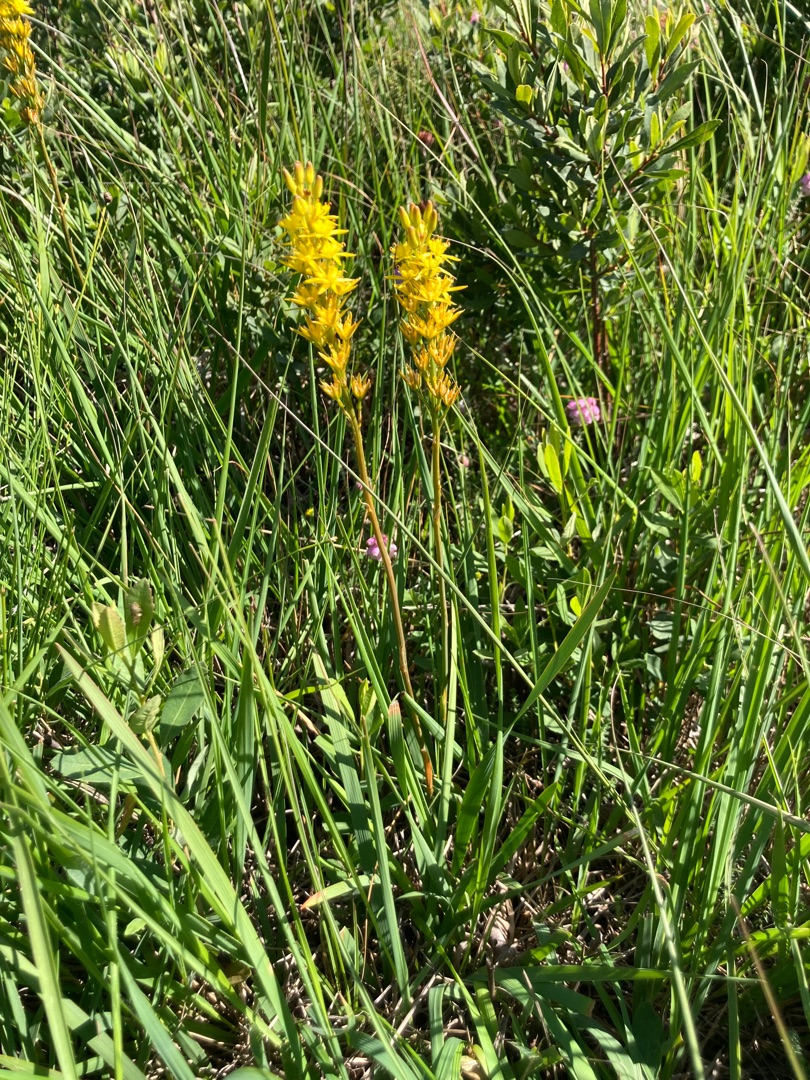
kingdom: Plantae
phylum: Tracheophyta
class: Liliopsida
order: Dioscoreales
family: Nartheciaceae
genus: Narthecium
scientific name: Narthecium ossifragum
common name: Benbræk
